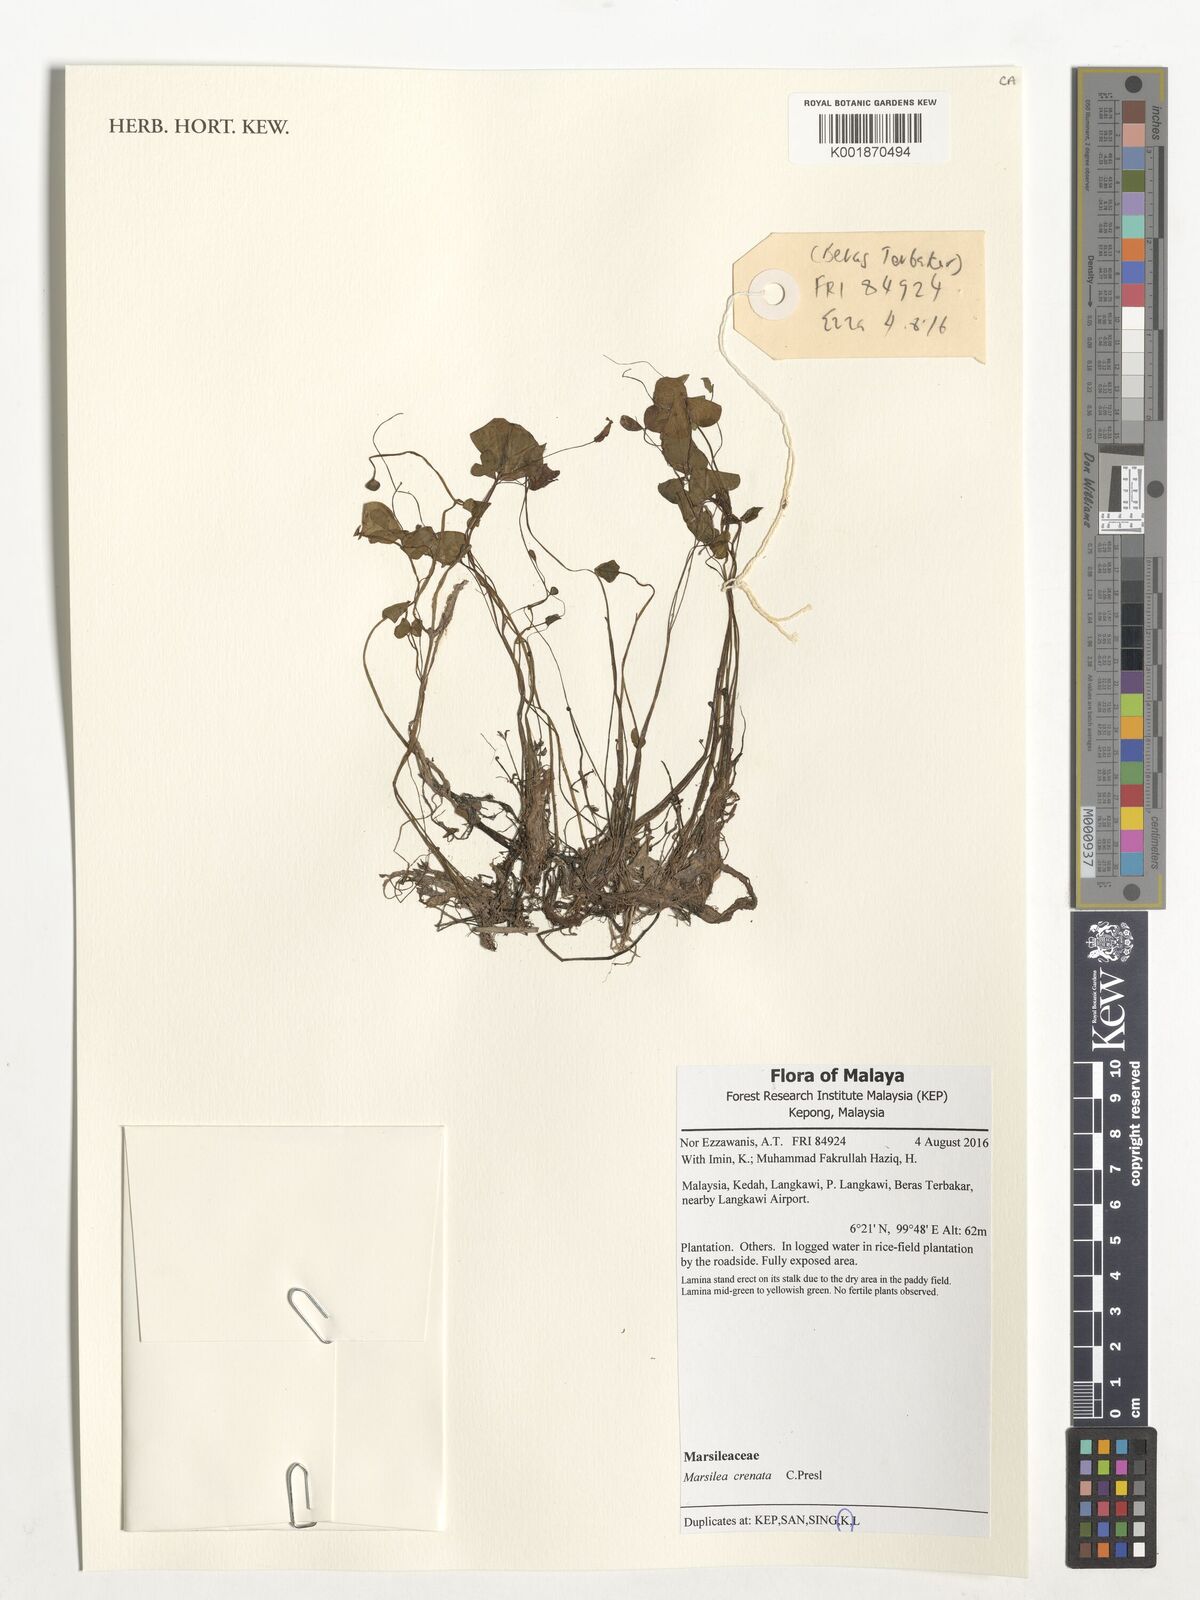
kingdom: Plantae
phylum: Tracheophyta
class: Polypodiopsida
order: Salviniales
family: Marsileaceae
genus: Marsilea
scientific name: Marsilea crenata
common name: False pepperwort
